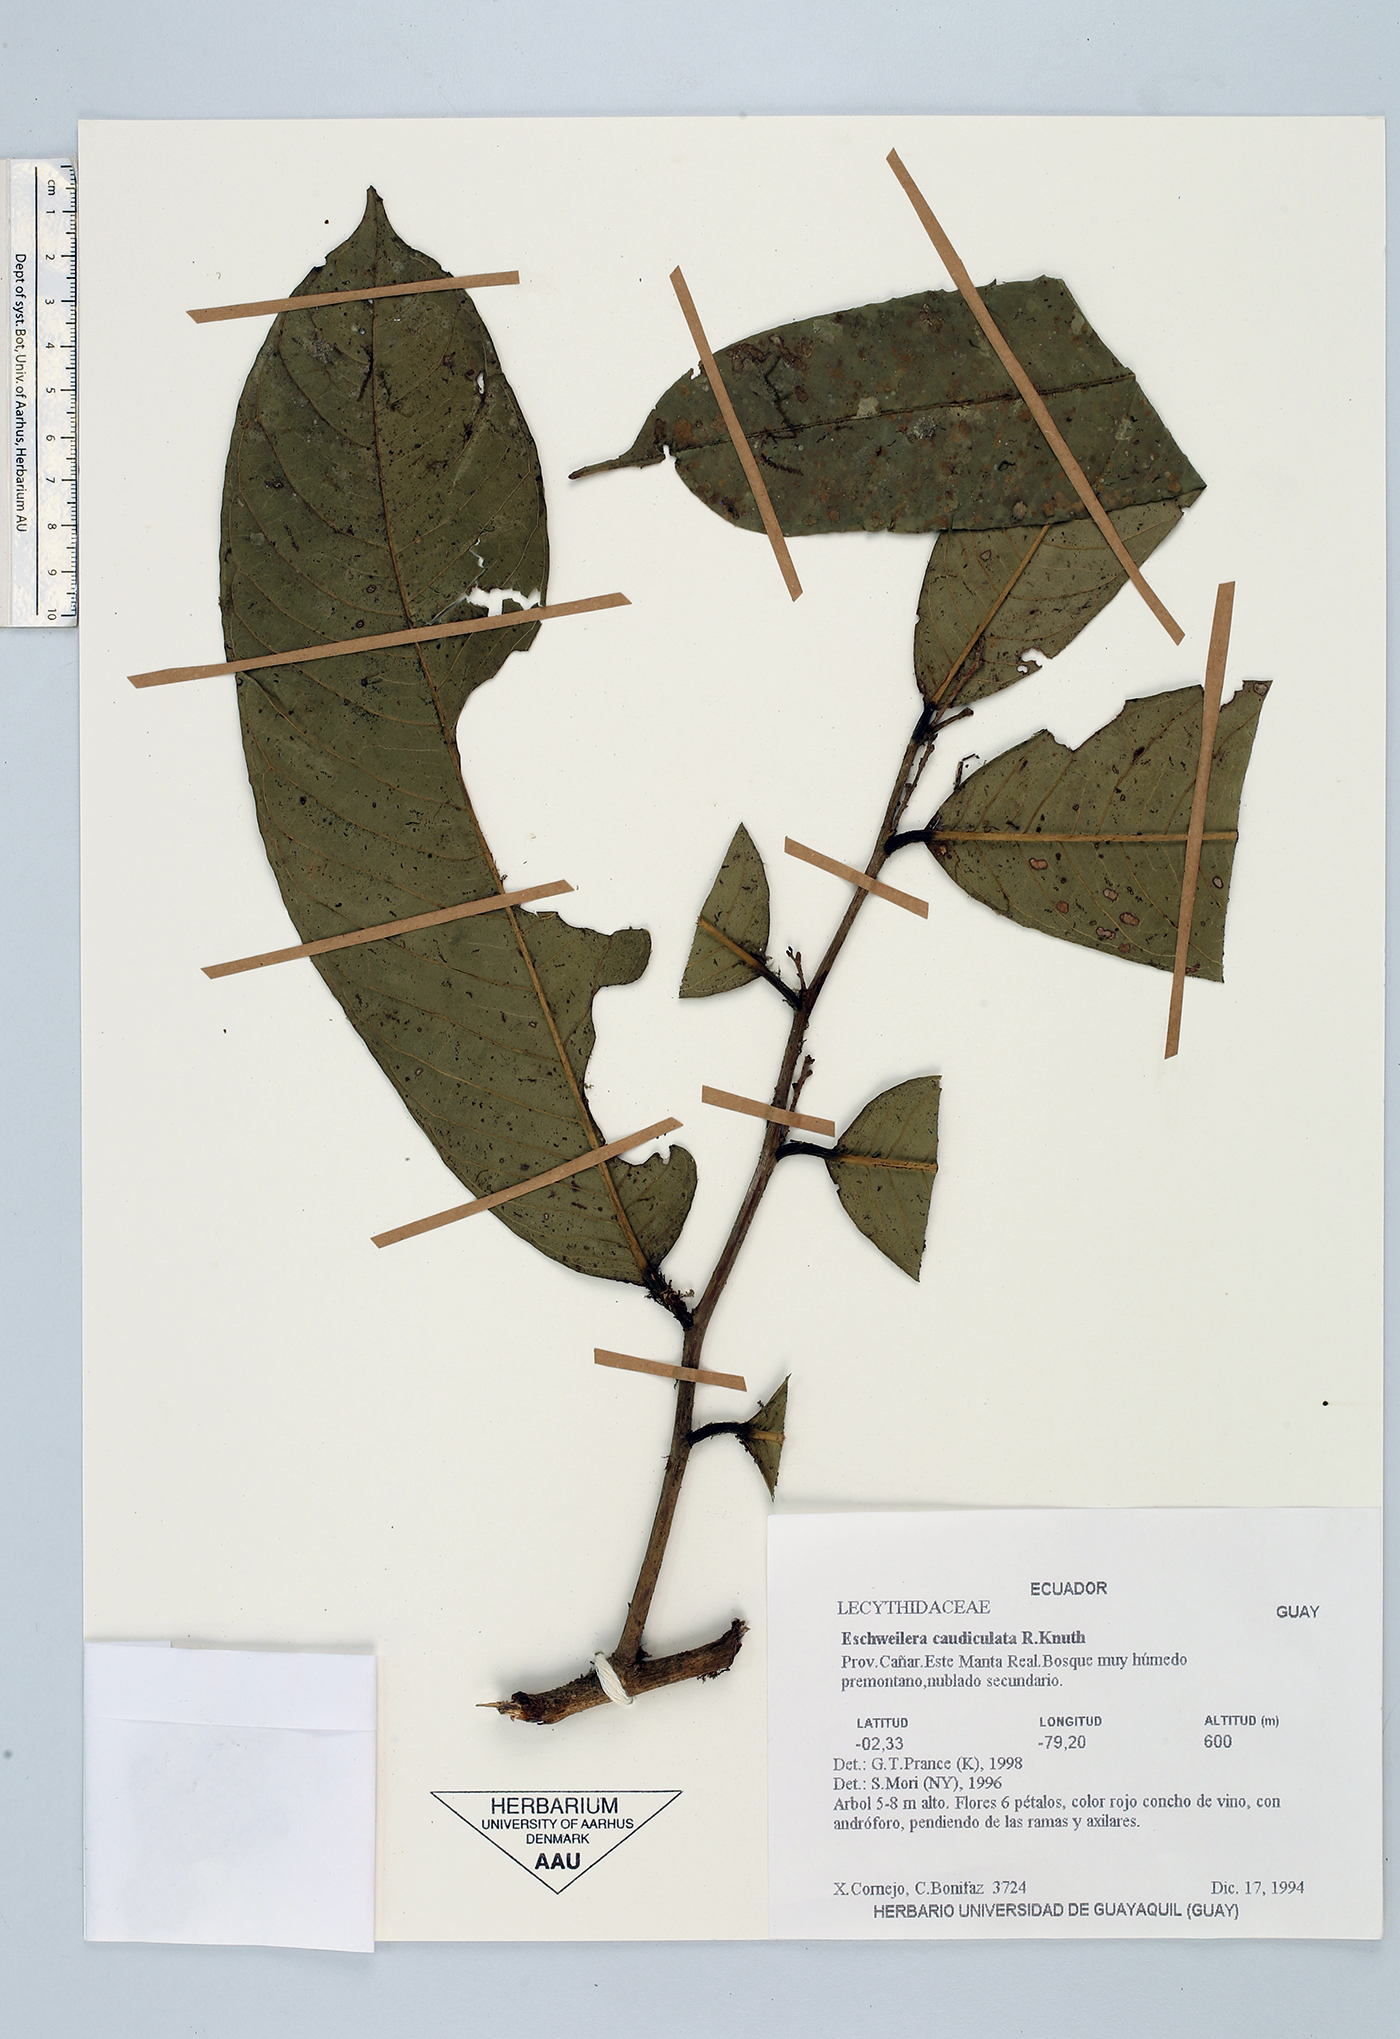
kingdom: Plantae
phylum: Tracheophyta
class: Magnoliopsida
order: Ericales
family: Lecythidaceae
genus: Eschweilera
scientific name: Eschweilera caudiculata
